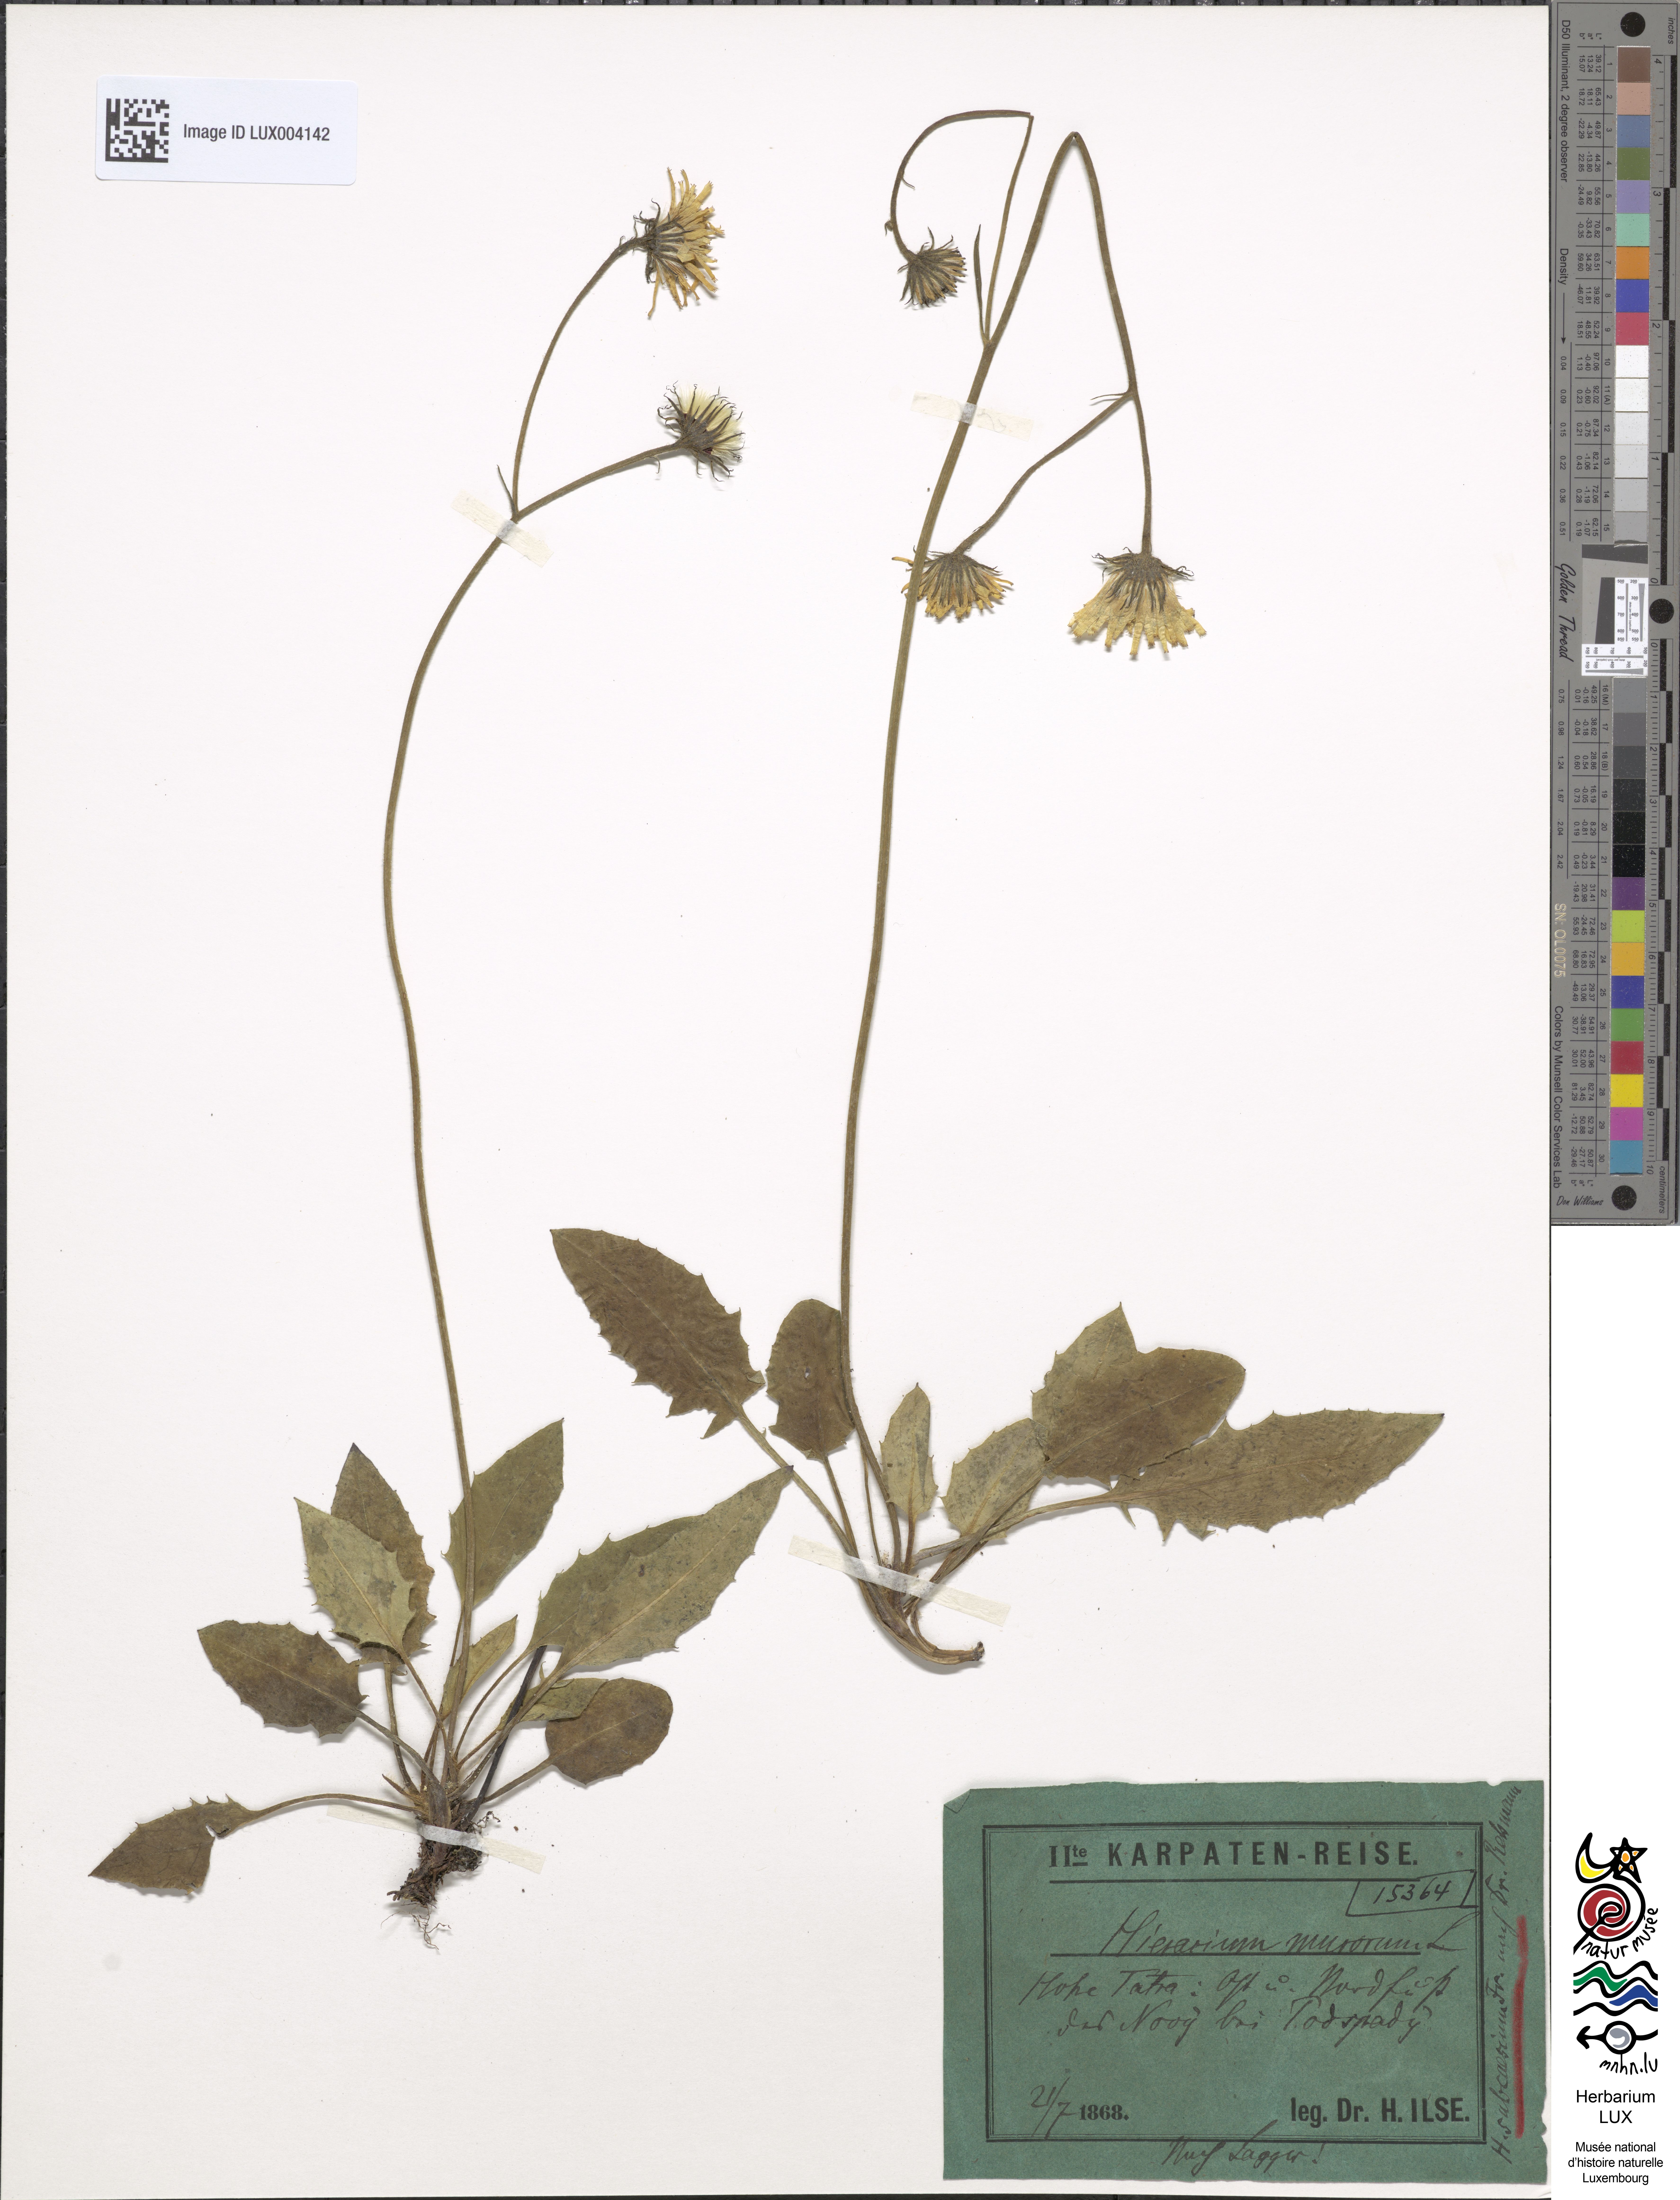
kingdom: Plantae
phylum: Tracheophyta
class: Magnoliopsida
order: Asterales
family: Asteraceae
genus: Hieracium
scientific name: Hieracium subcaesium
